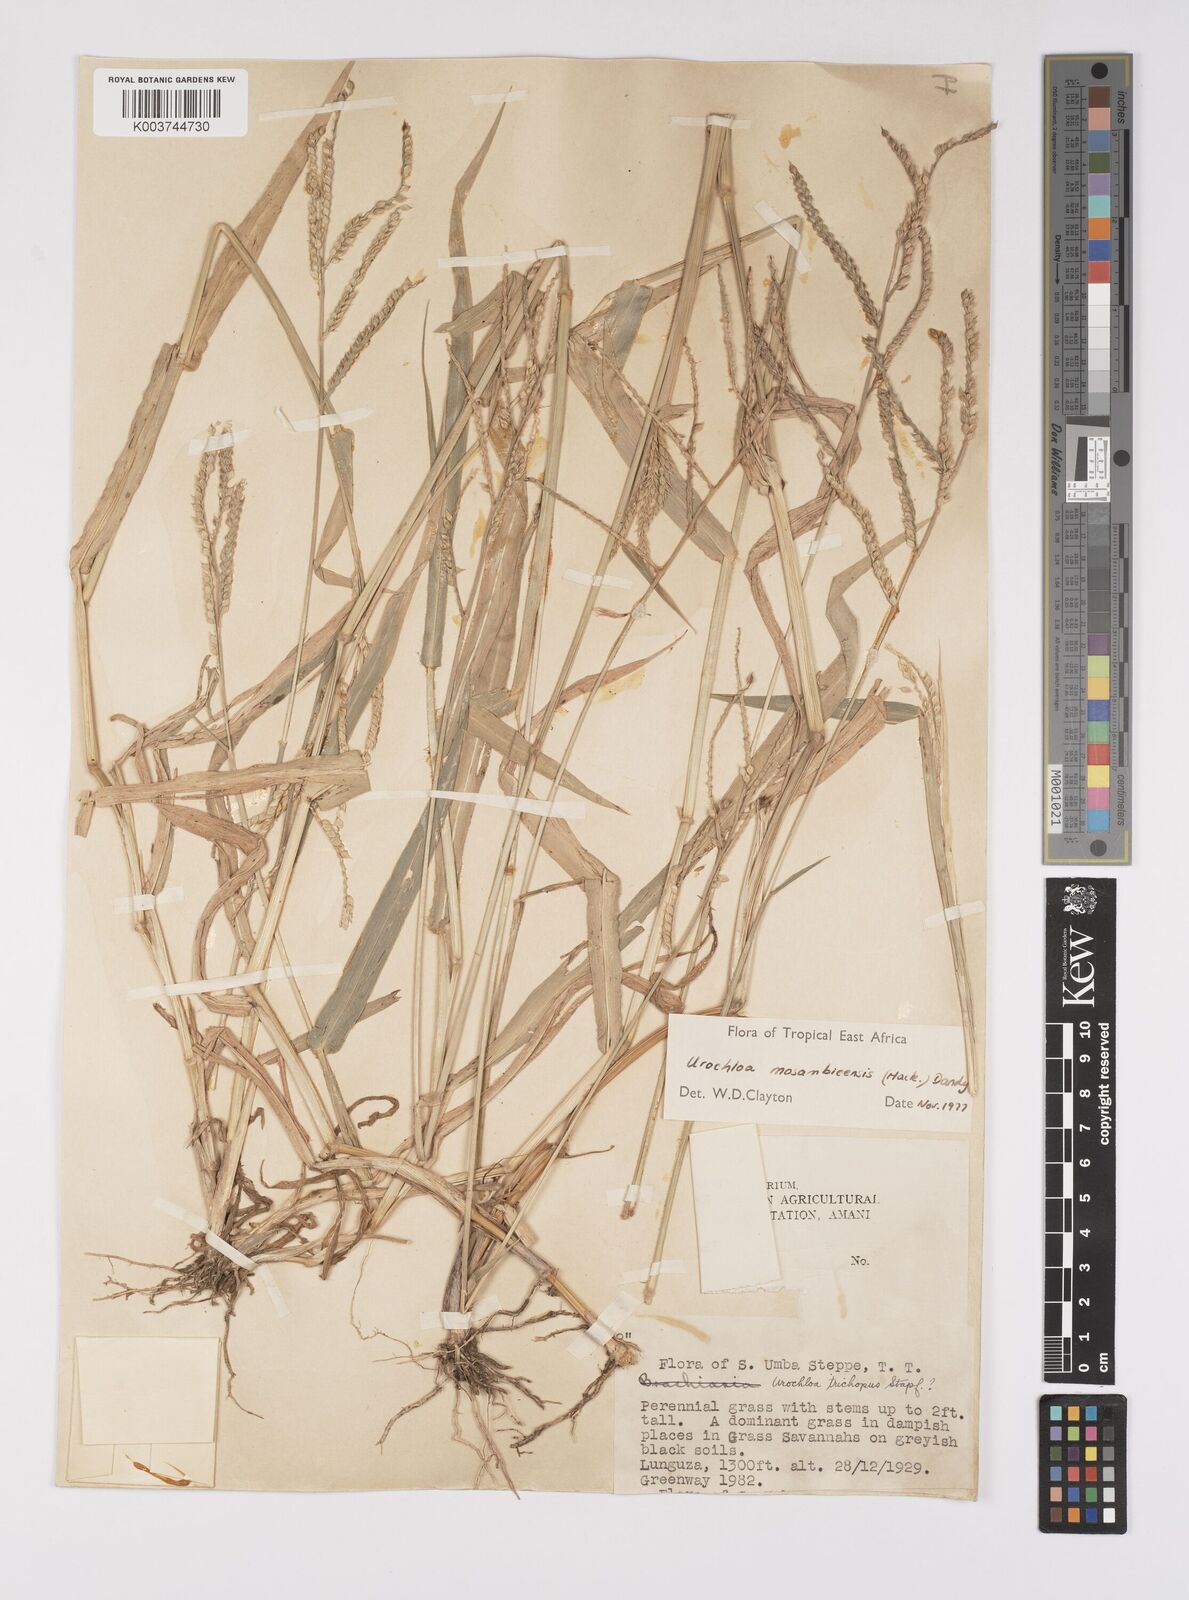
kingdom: Plantae
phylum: Tracheophyta
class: Liliopsida
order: Poales
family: Poaceae
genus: Urochloa
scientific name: Urochloa trichopus
